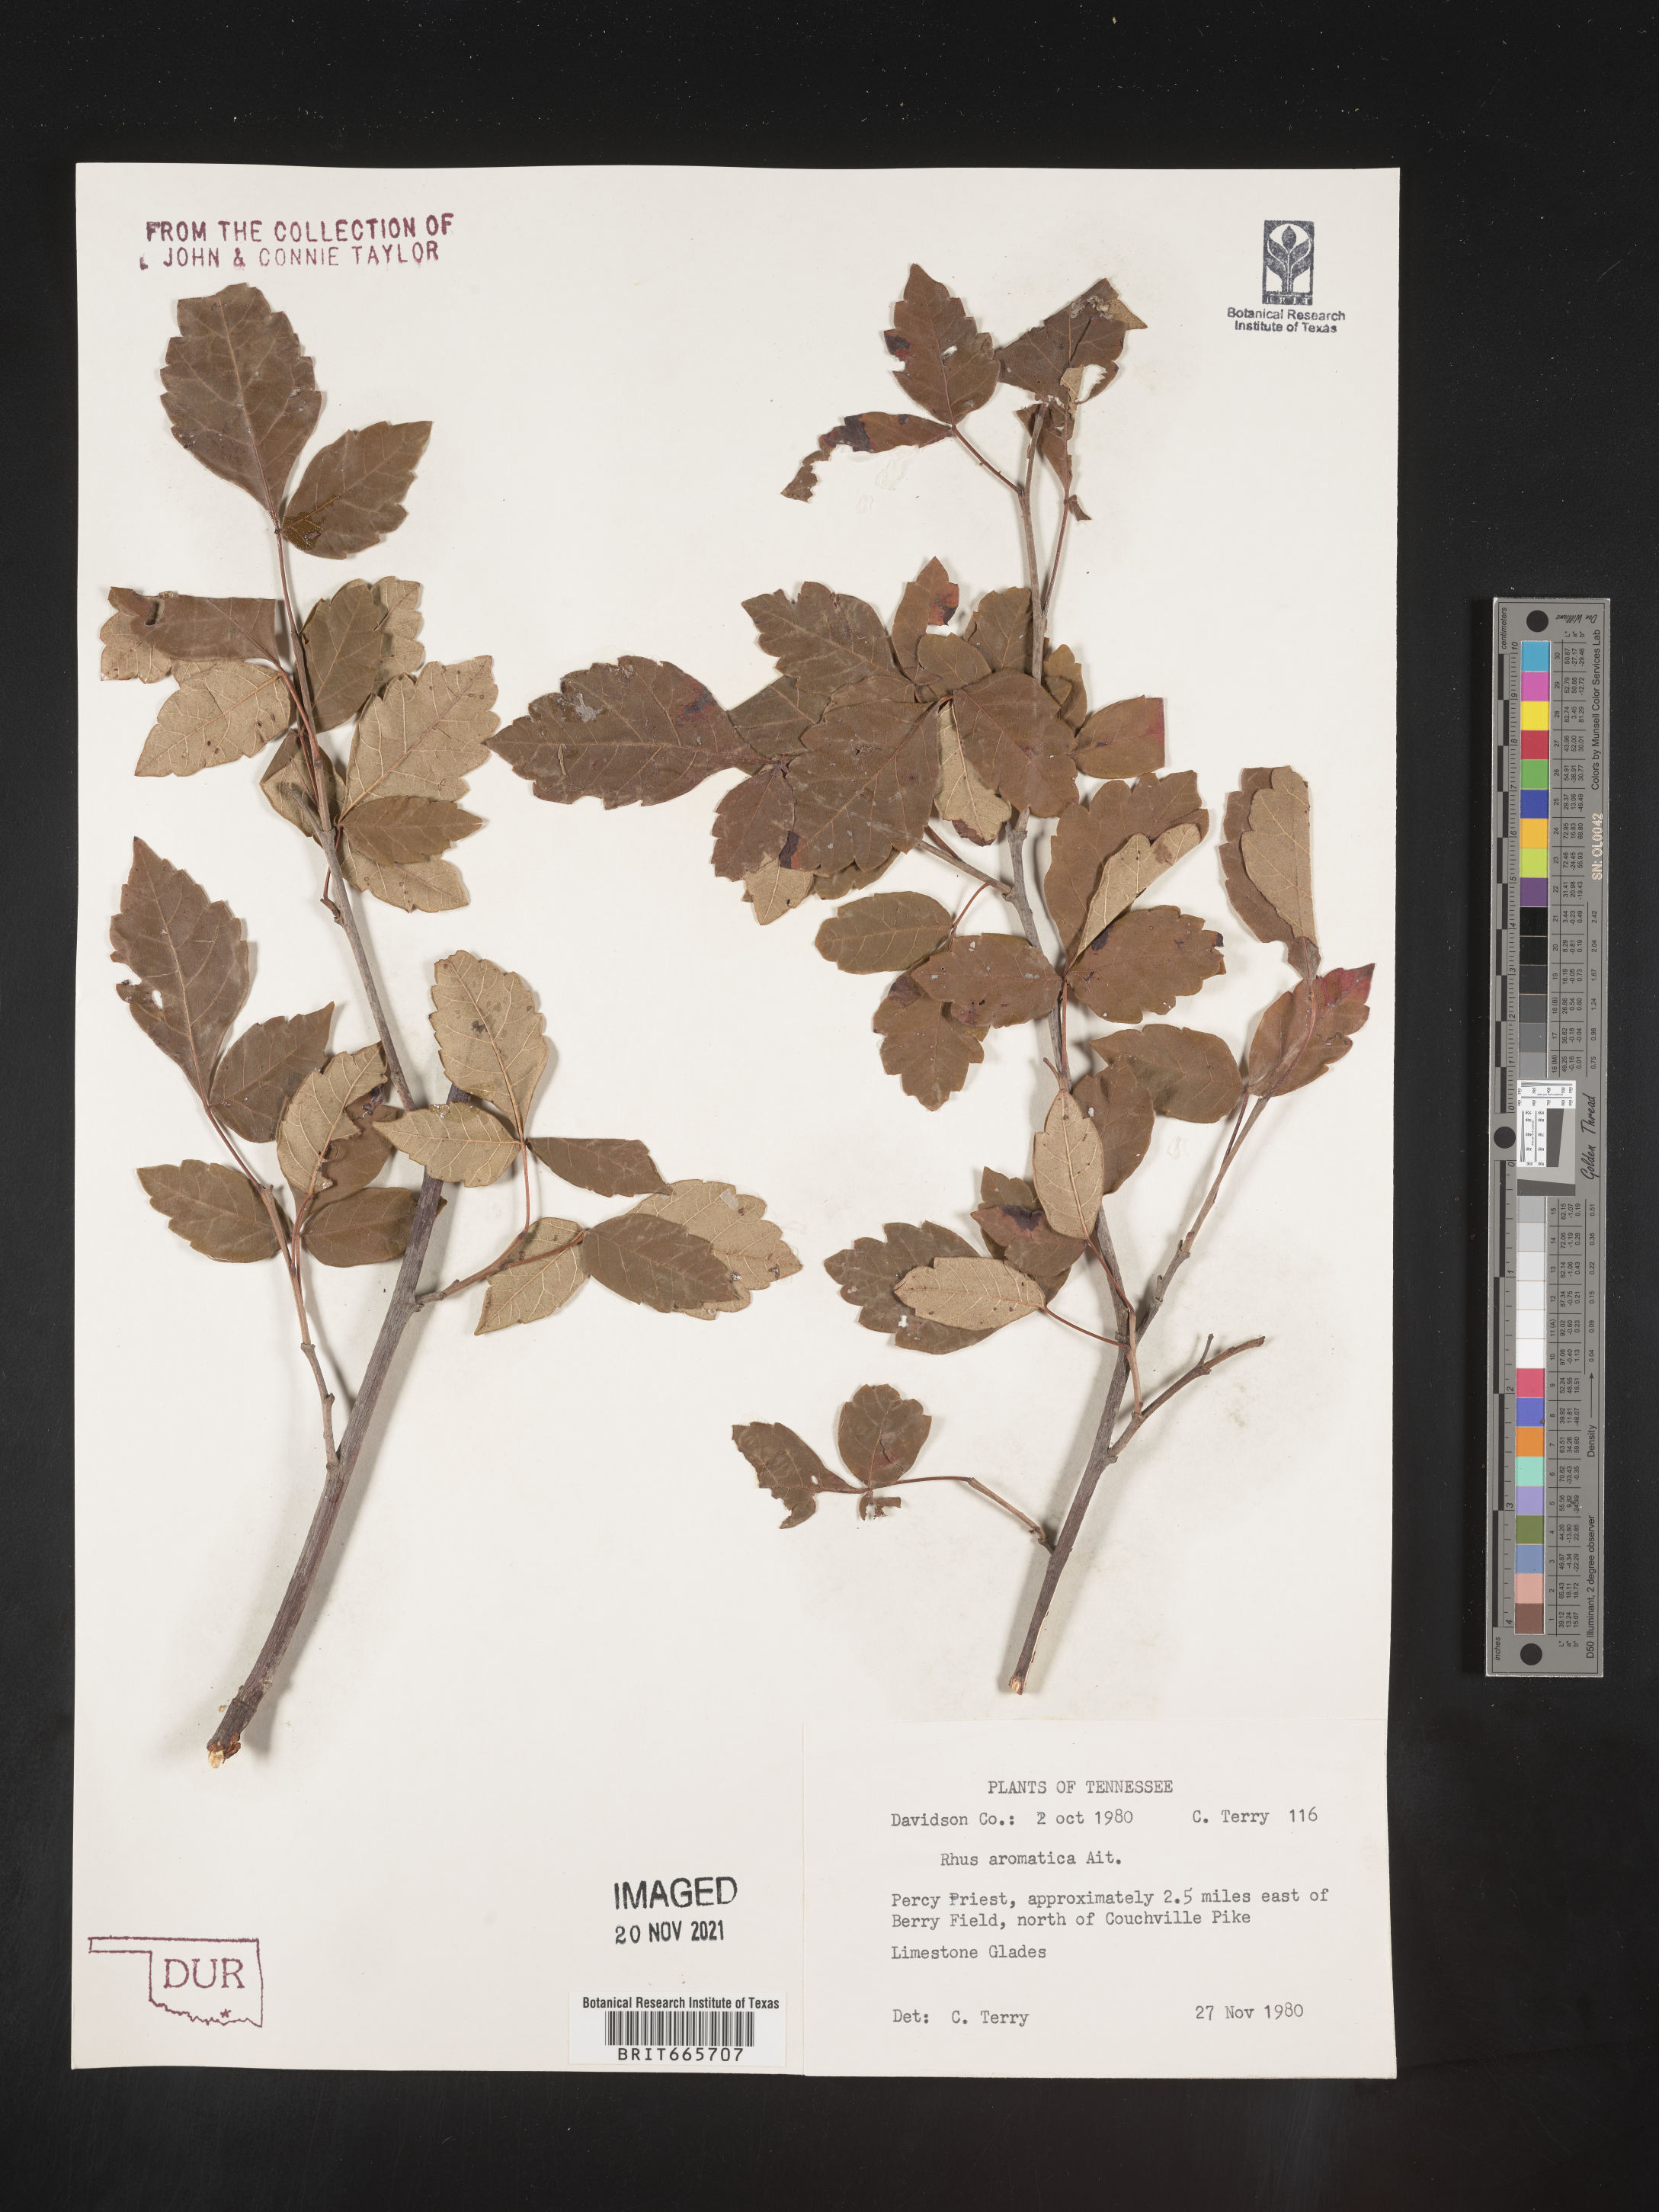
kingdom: Plantae
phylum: Tracheophyta
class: Magnoliopsida
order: Sapindales
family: Anacardiaceae
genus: Rhus
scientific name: Rhus aromatica
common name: Aromatic sumac
